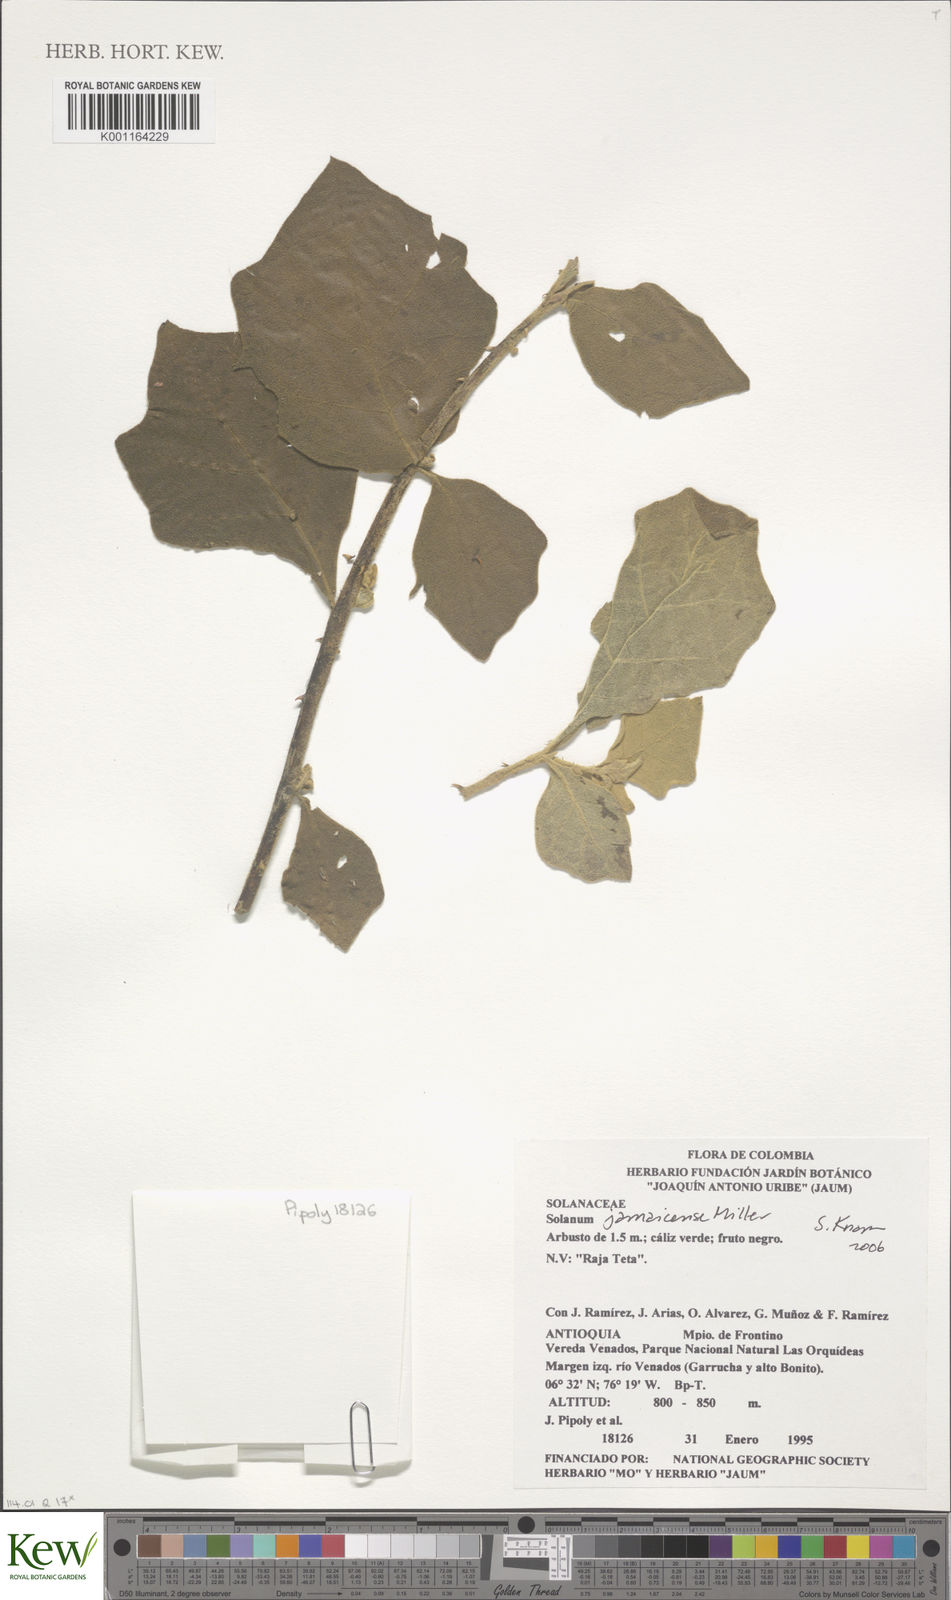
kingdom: Plantae
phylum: Tracheophyta
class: Magnoliopsida
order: Solanales
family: Solanaceae
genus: Solanum
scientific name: Solanum jamaicense
